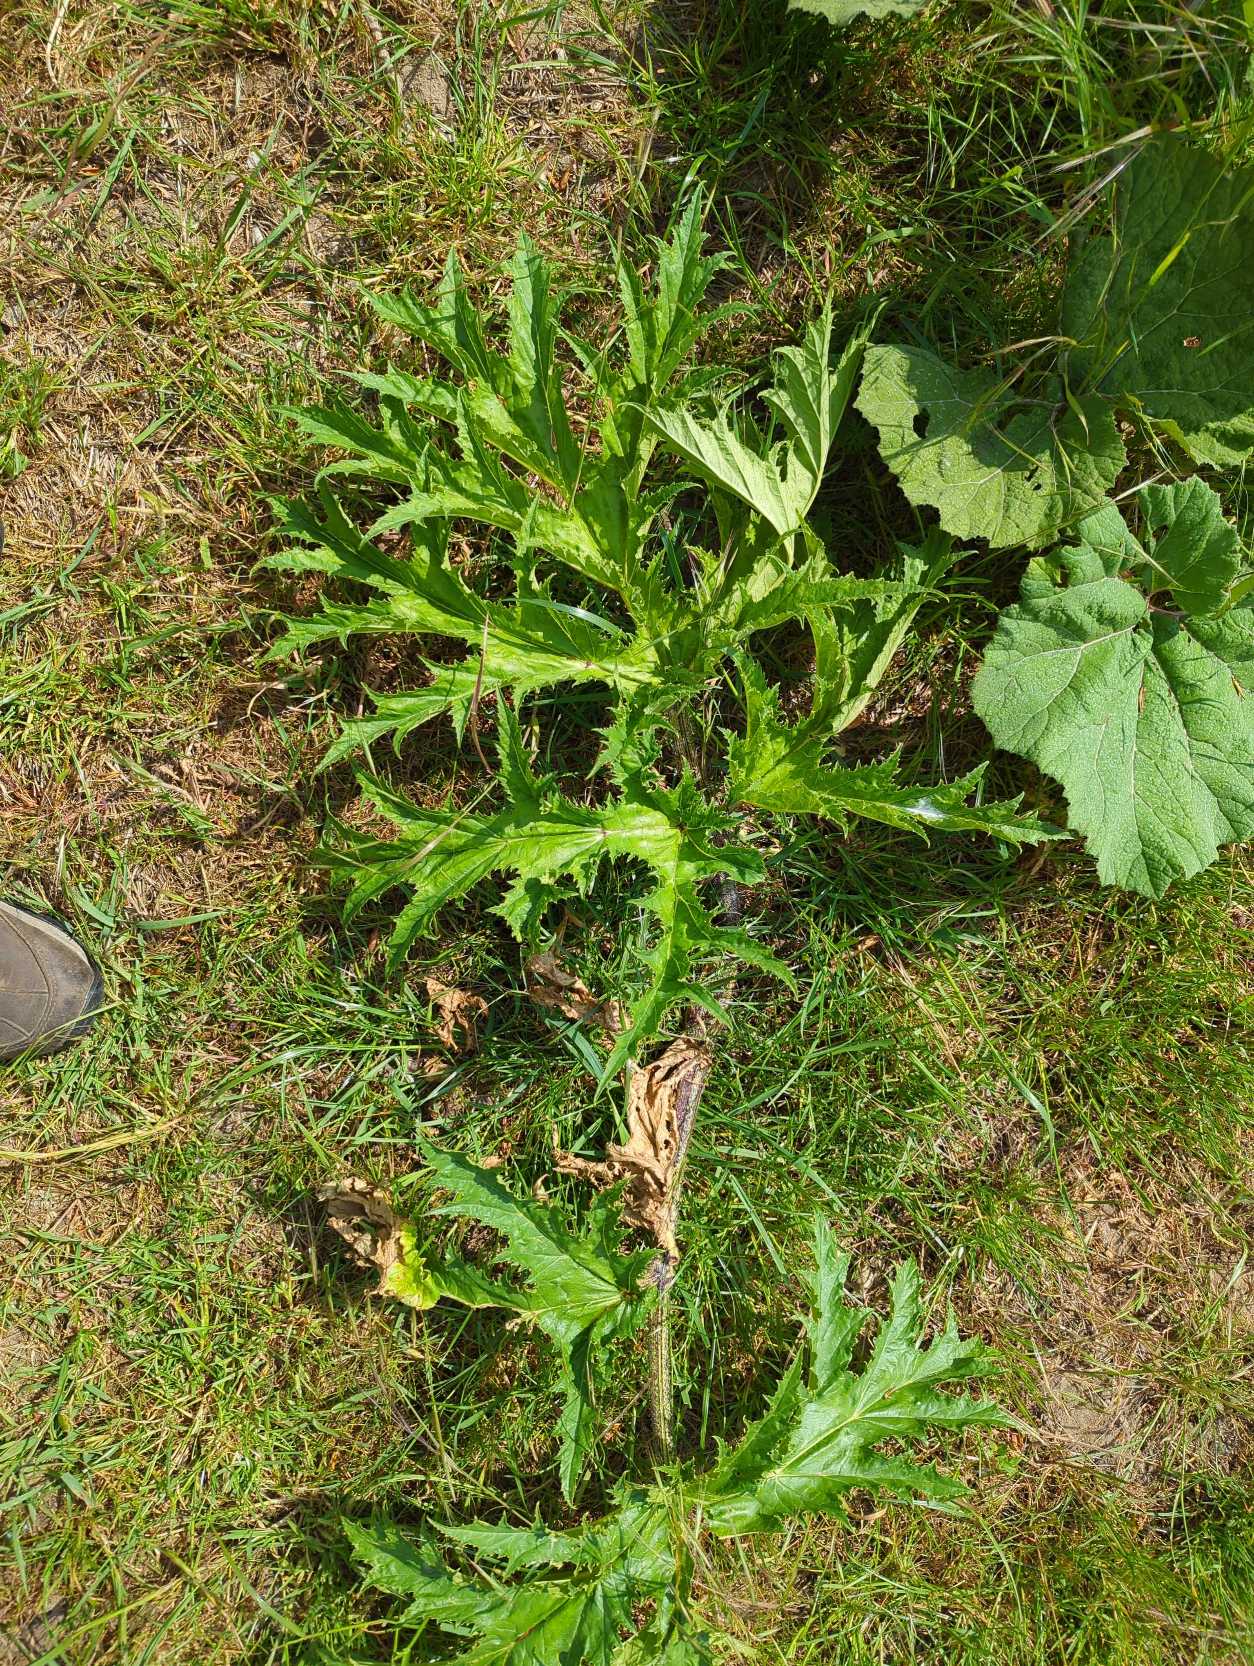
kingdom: Plantae
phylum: Tracheophyta
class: Magnoliopsida
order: Apiales
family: Apiaceae
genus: Heracleum
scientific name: Heracleum mantegazzianum
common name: Kæmpe-bjørneklo
